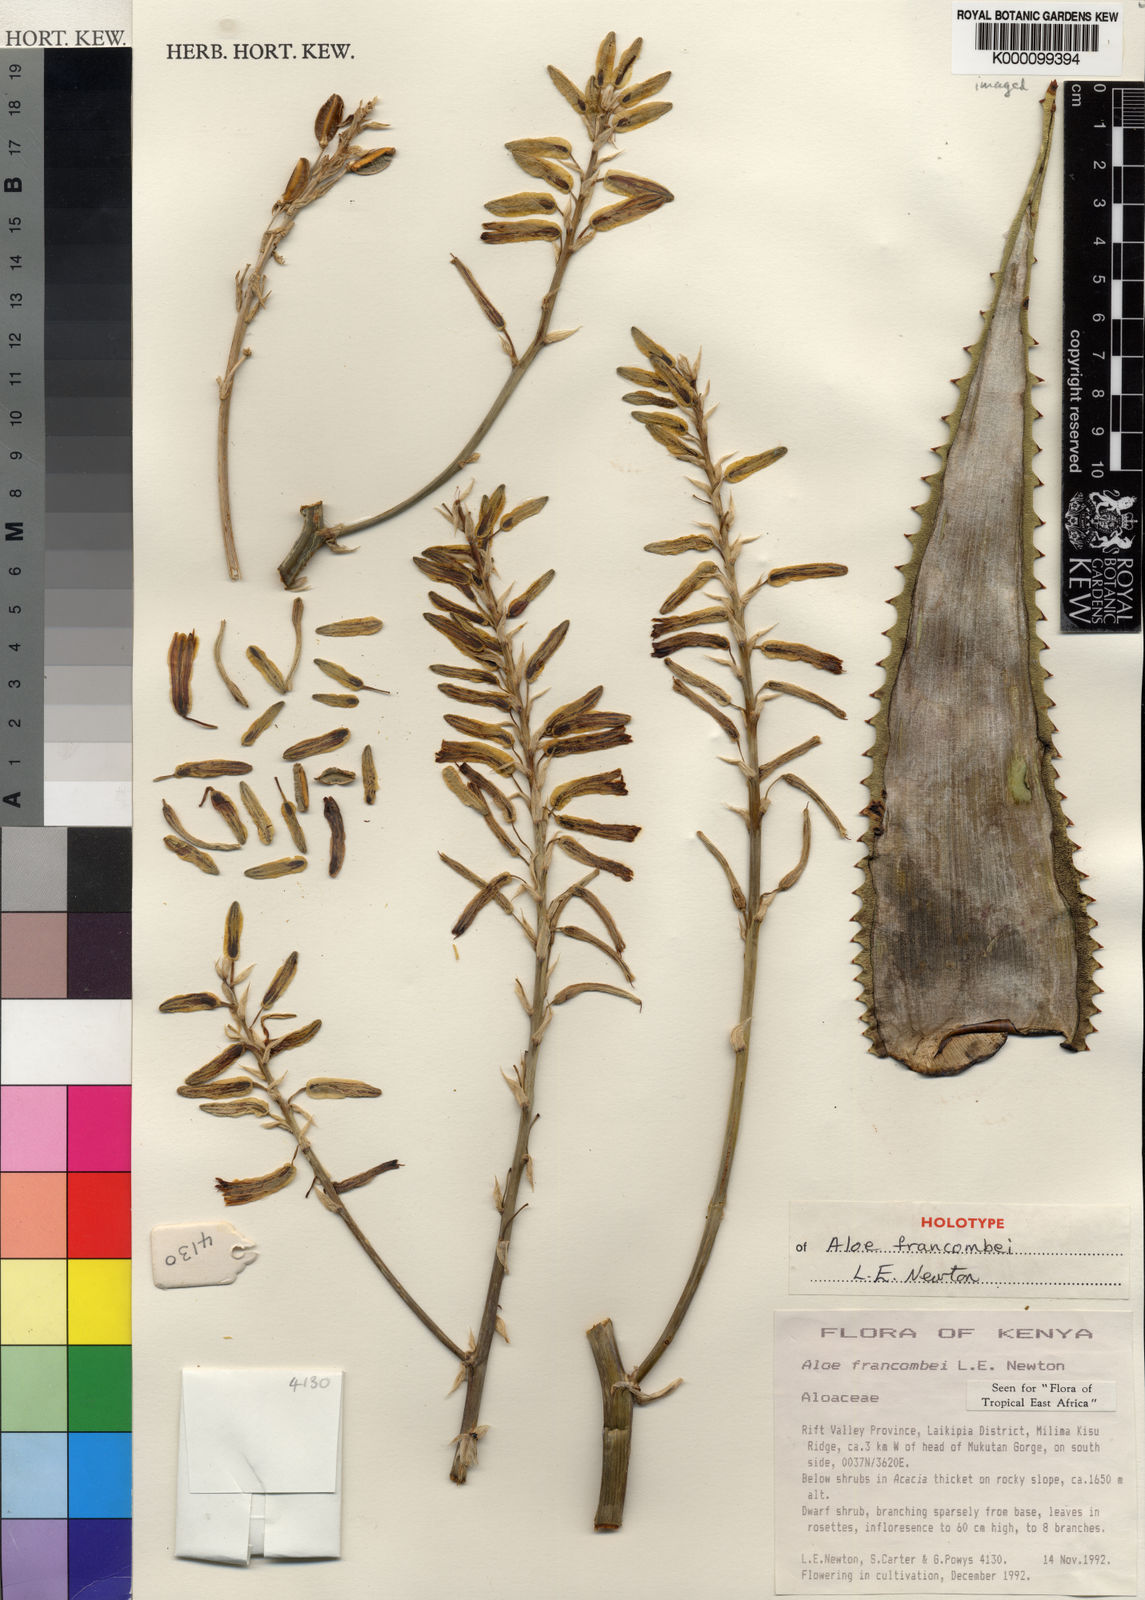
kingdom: Plantae
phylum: Tracheophyta
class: Liliopsida
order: Asparagales
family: Asphodelaceae
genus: Aloe
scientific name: Aloe francombei
